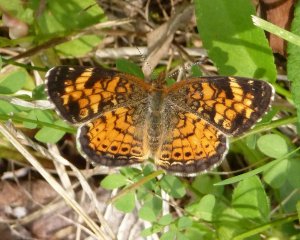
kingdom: Animalia
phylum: Arthropoda
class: Insecta
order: Lepidoptera
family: Nymphalidae
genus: Phyciodes
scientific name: Phyciodes tharos
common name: Northern Crescent
